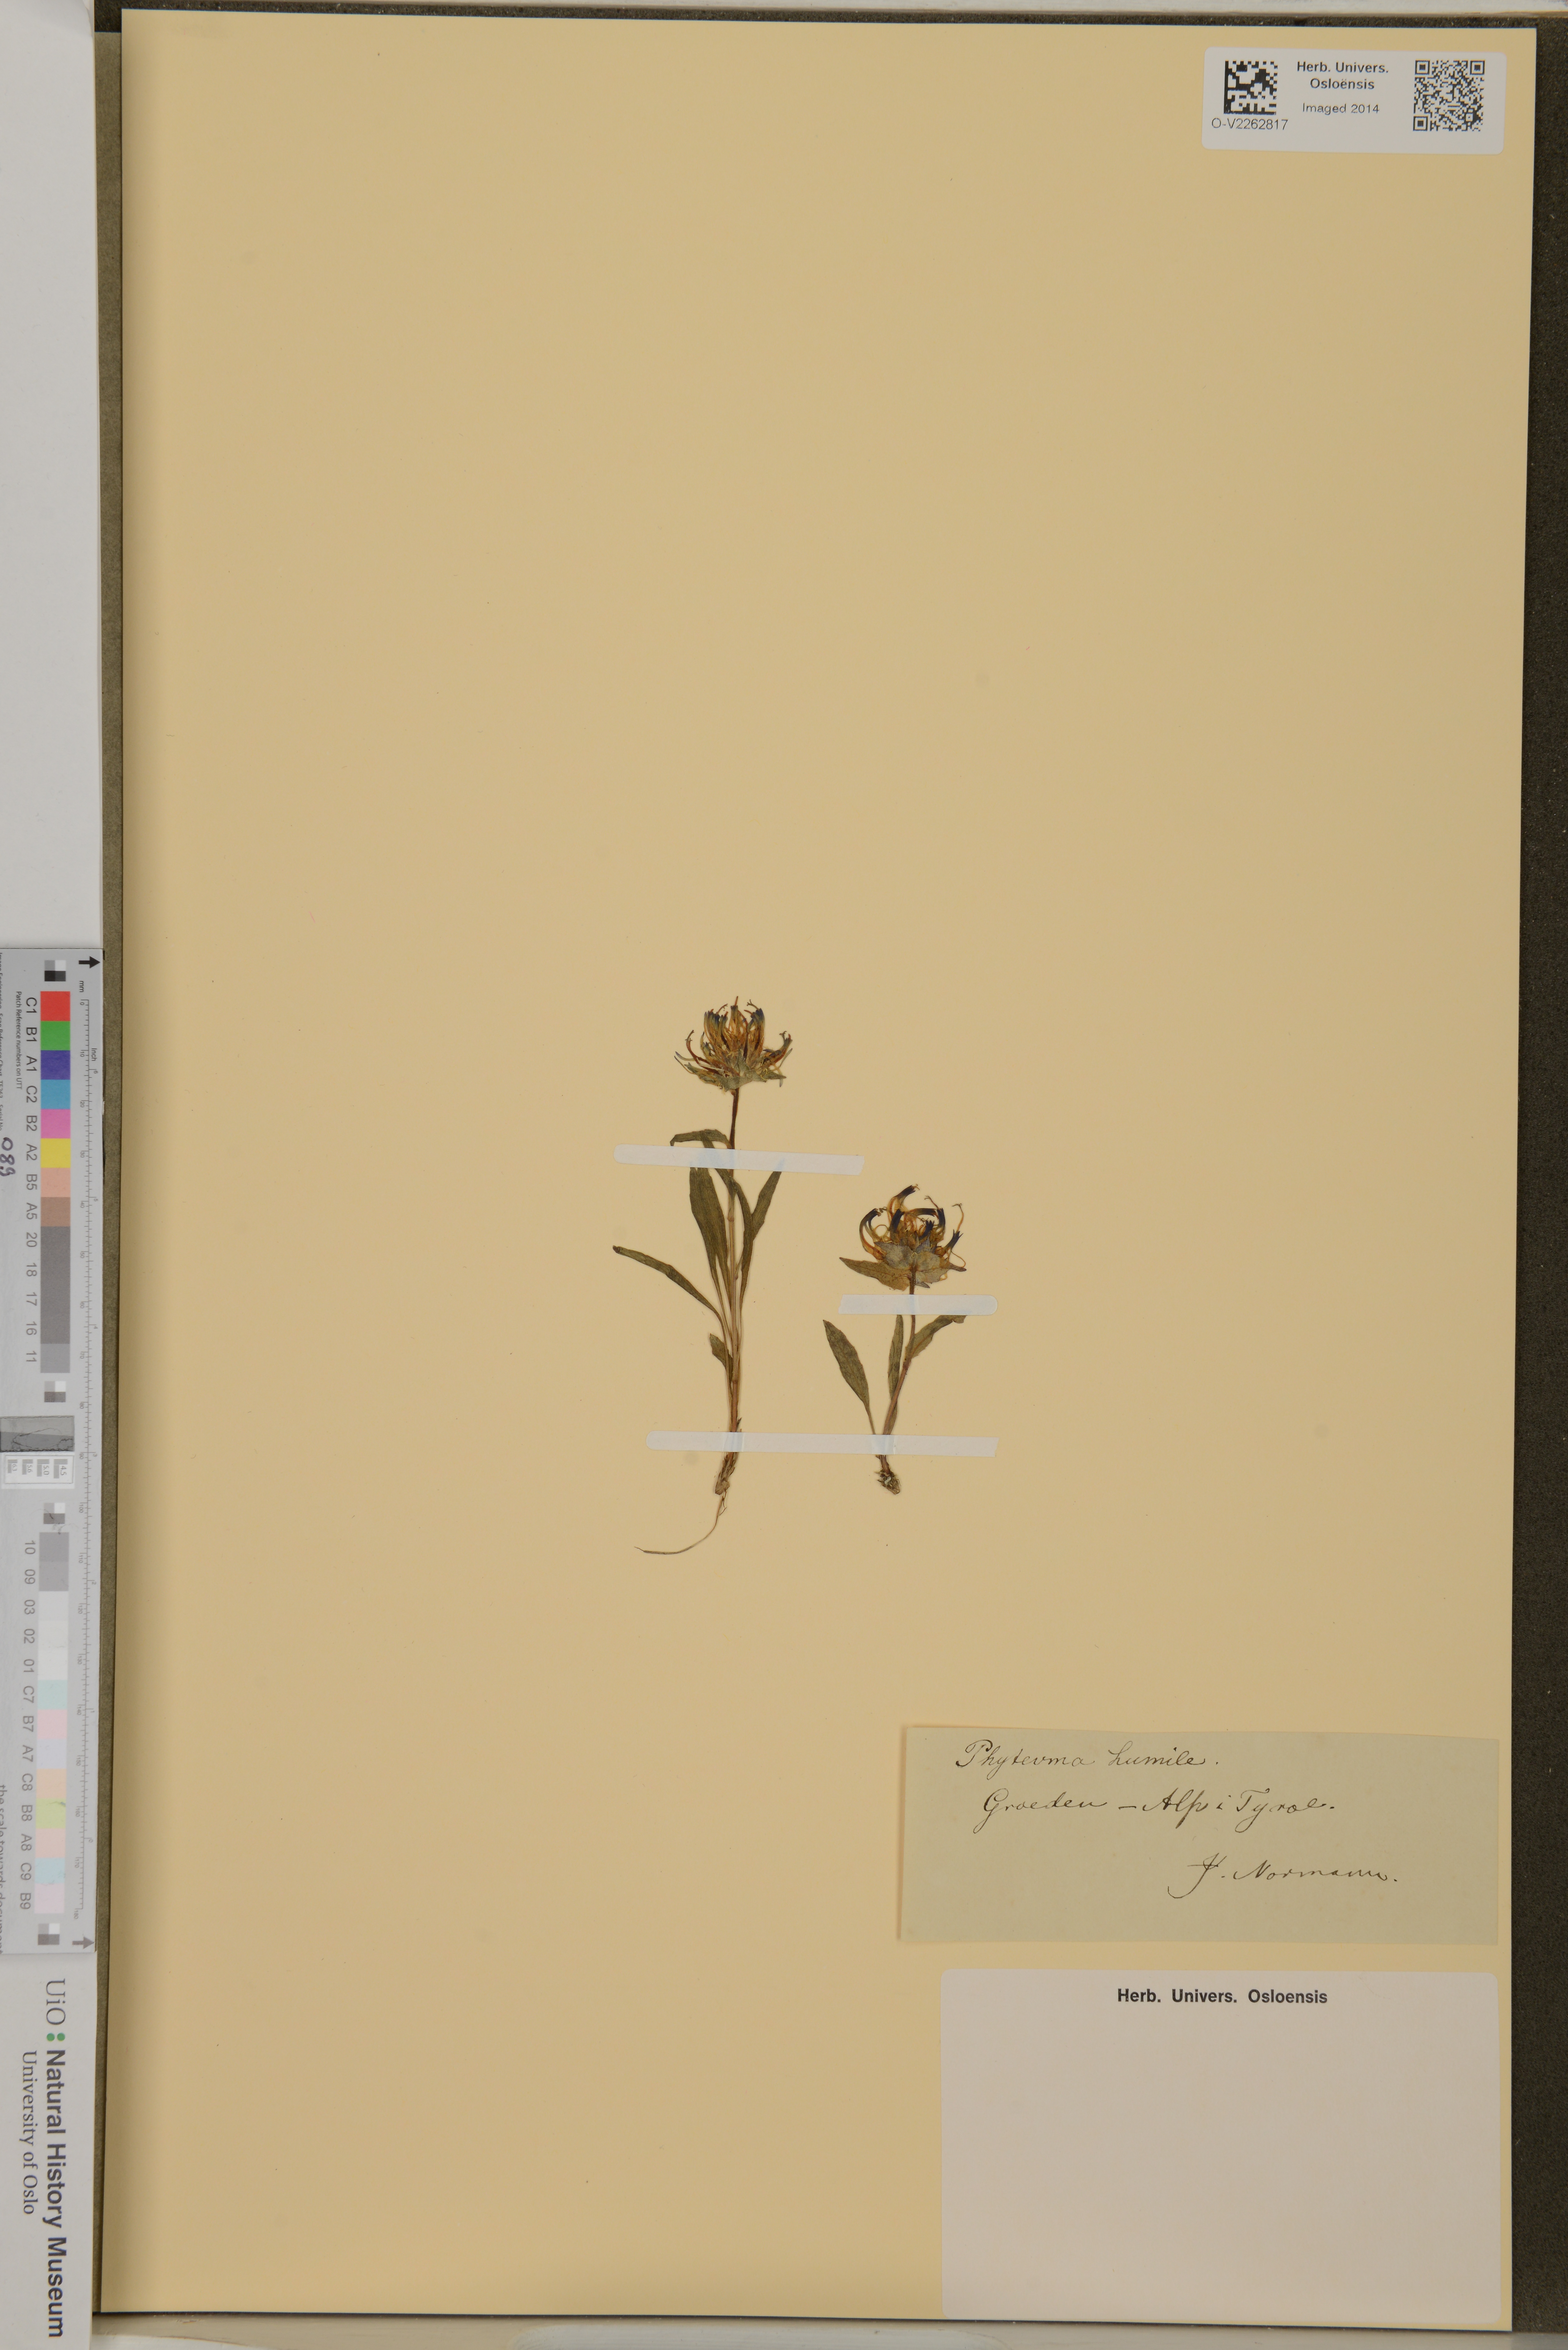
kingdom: Plantae
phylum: Tracheophyta
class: Magnoliopsida
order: Asterales
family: Campanulaceae
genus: Phyteuma
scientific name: Phyteuma humile
